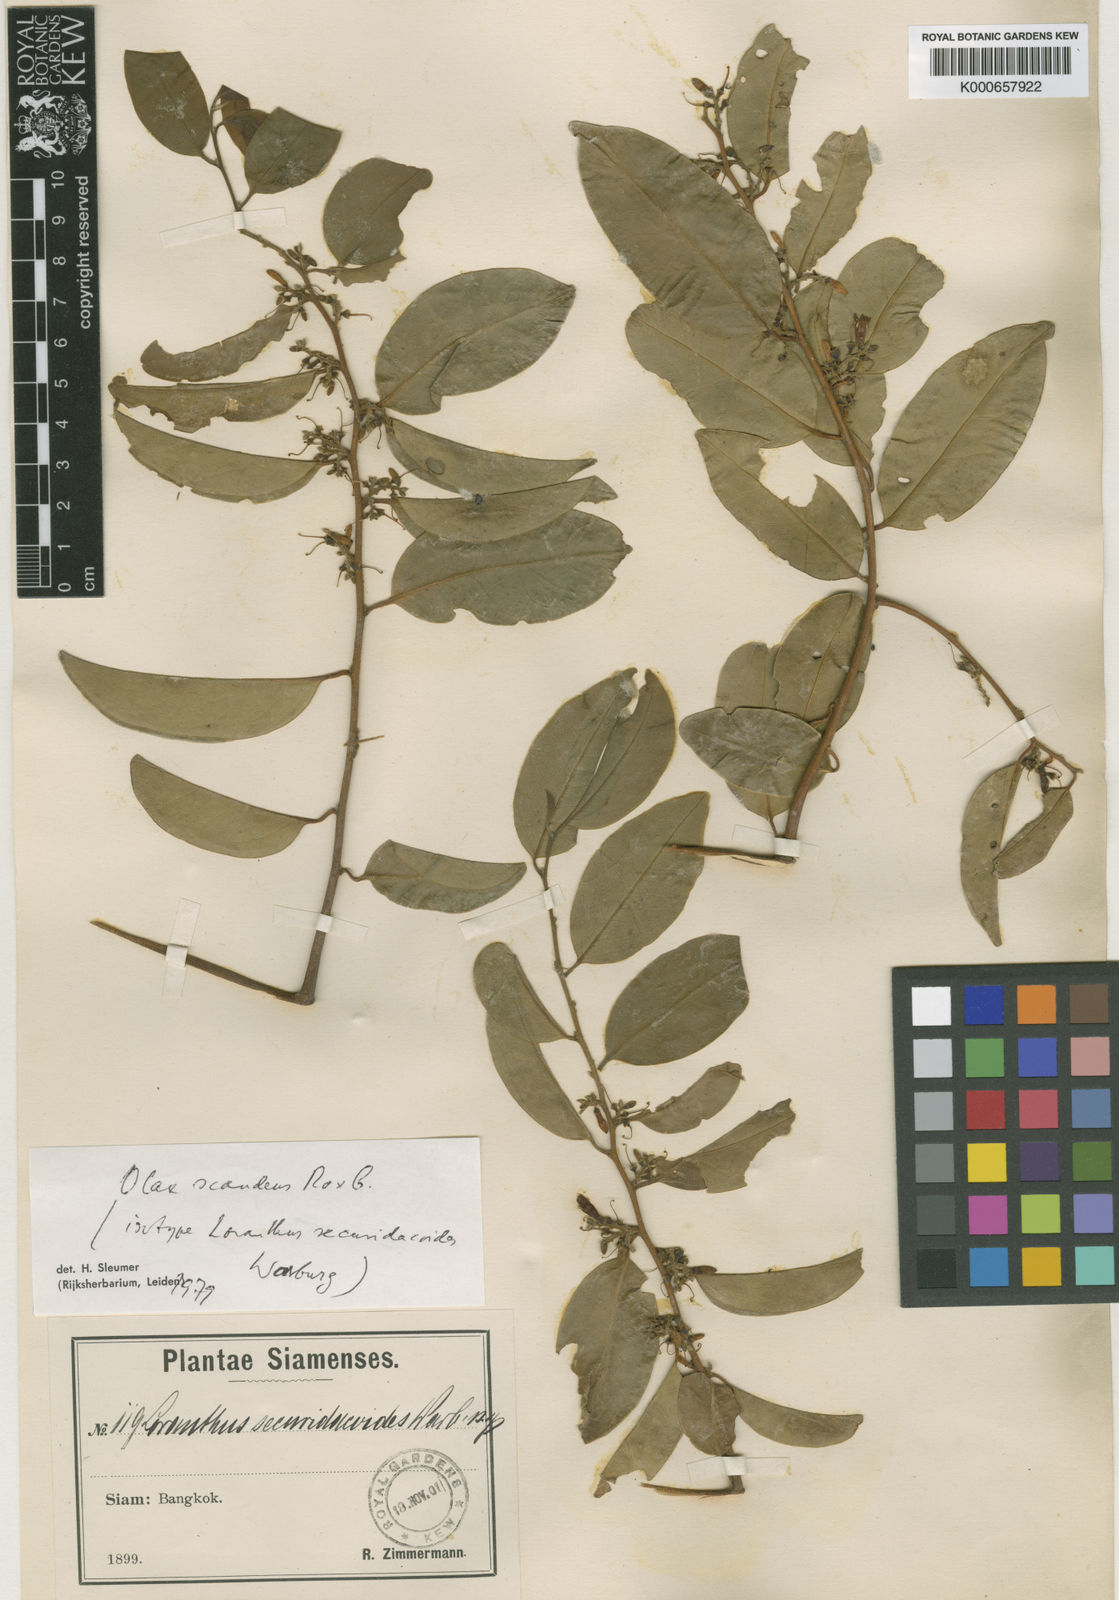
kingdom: Plantae
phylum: Tracheophyta
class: Magnoliopsida
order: Santalales
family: Olacaceae
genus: Olax
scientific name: Olax psittacorum
